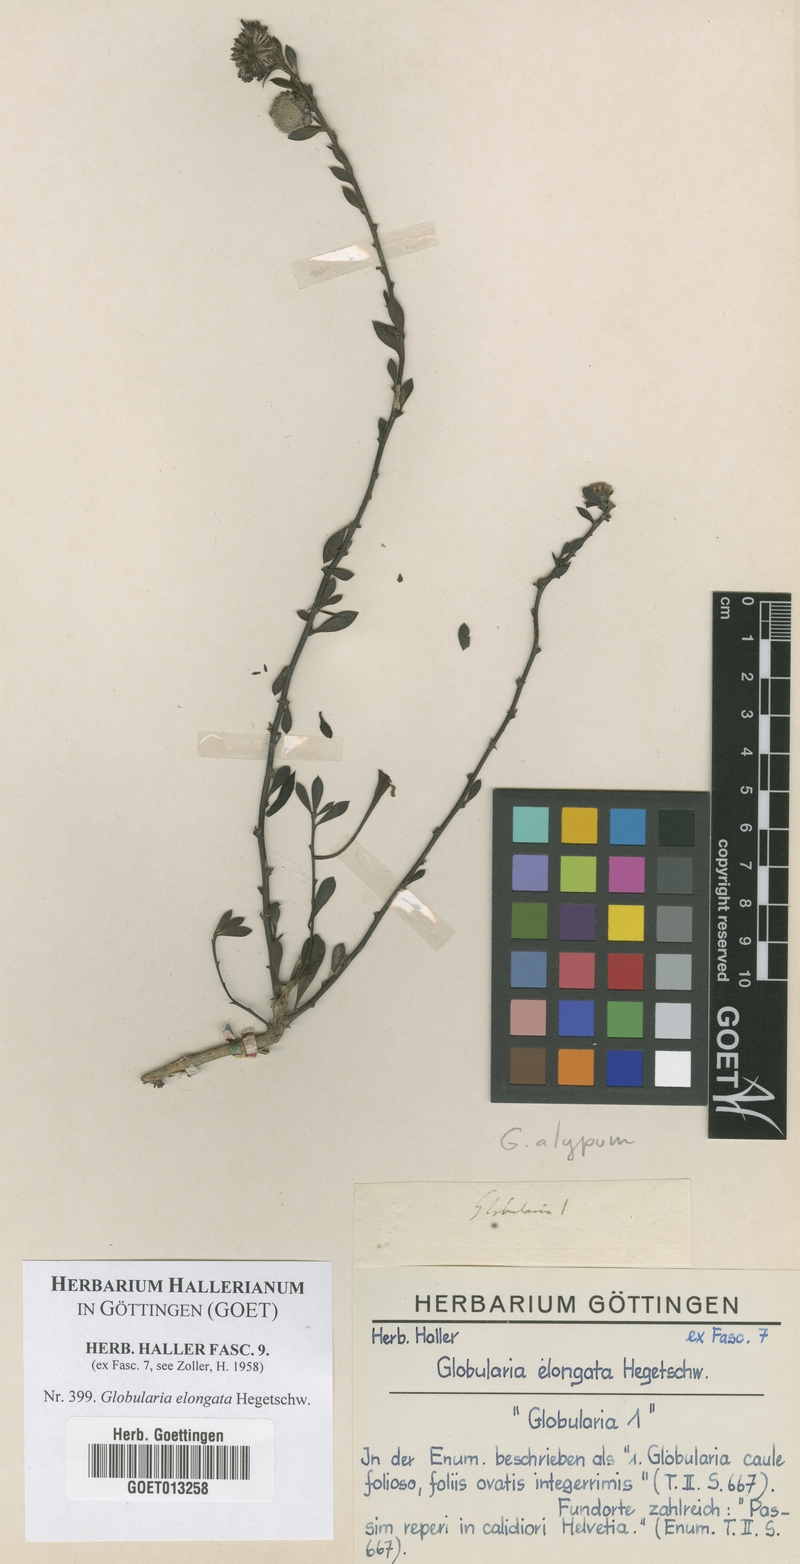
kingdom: Plantae
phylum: Tracheophyta
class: Magnoliopsida
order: Lamiales
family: Plantaginaceae
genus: Globularia
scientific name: Globularia bisnagarica
